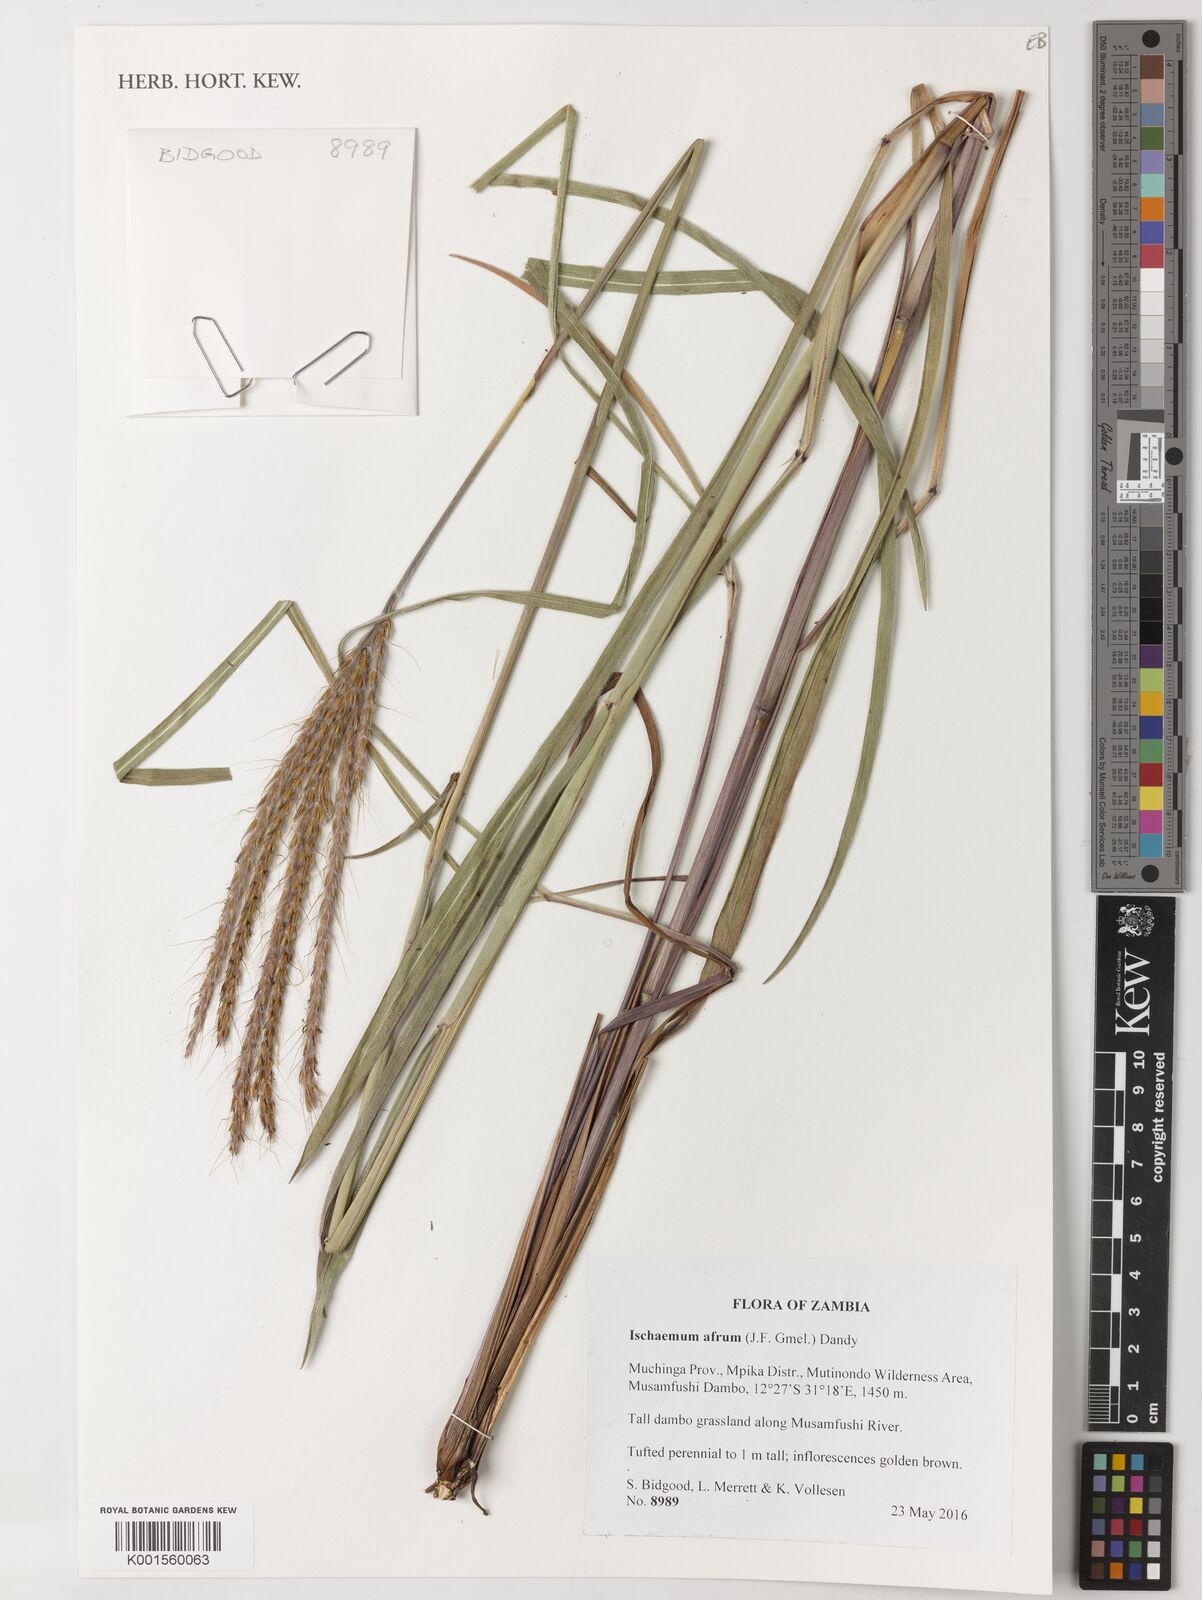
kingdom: Plantae
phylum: Tracheophyta
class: Liliopsida
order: Poales
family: Poaceae
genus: Ischaemum
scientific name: Ischaemum afrum
